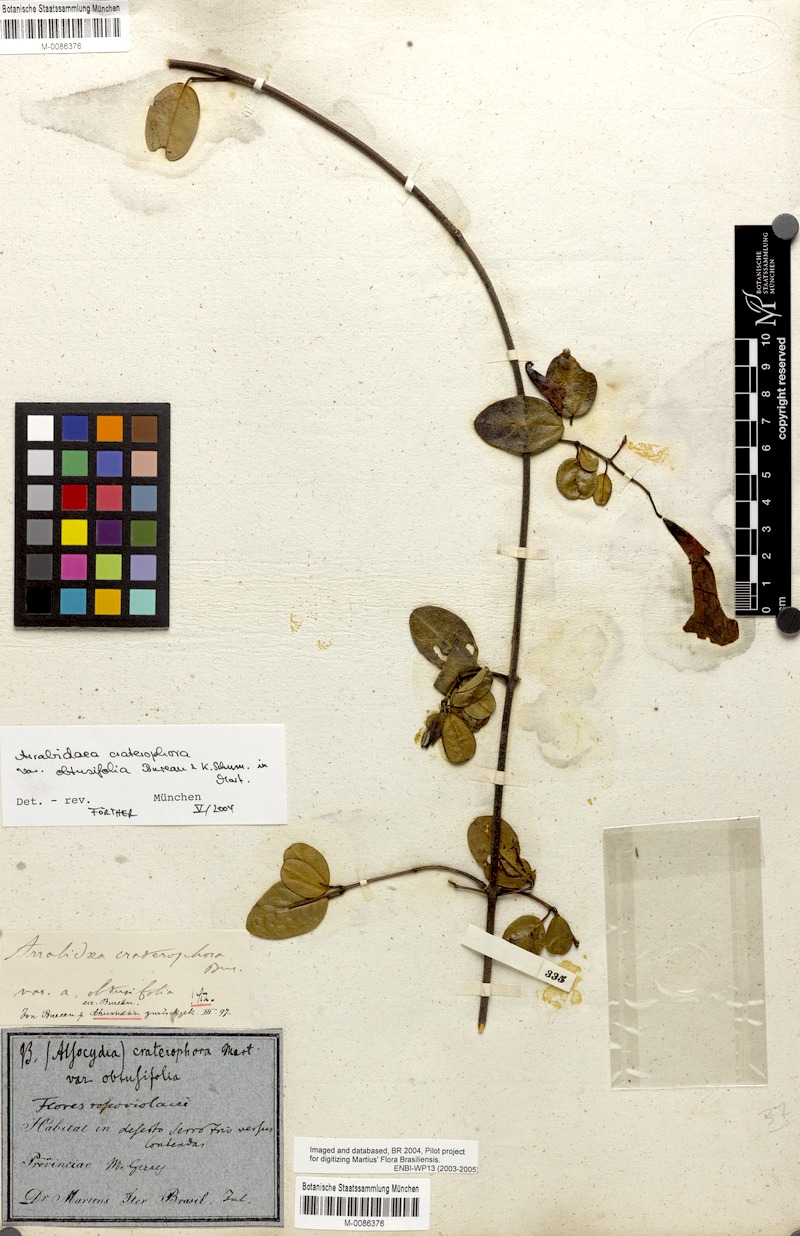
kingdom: Plantae
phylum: Tracheophyta
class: Magnoliopsida
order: Lamiales
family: Bignoniaceae
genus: Fridericia
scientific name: Fridericia craterophora
